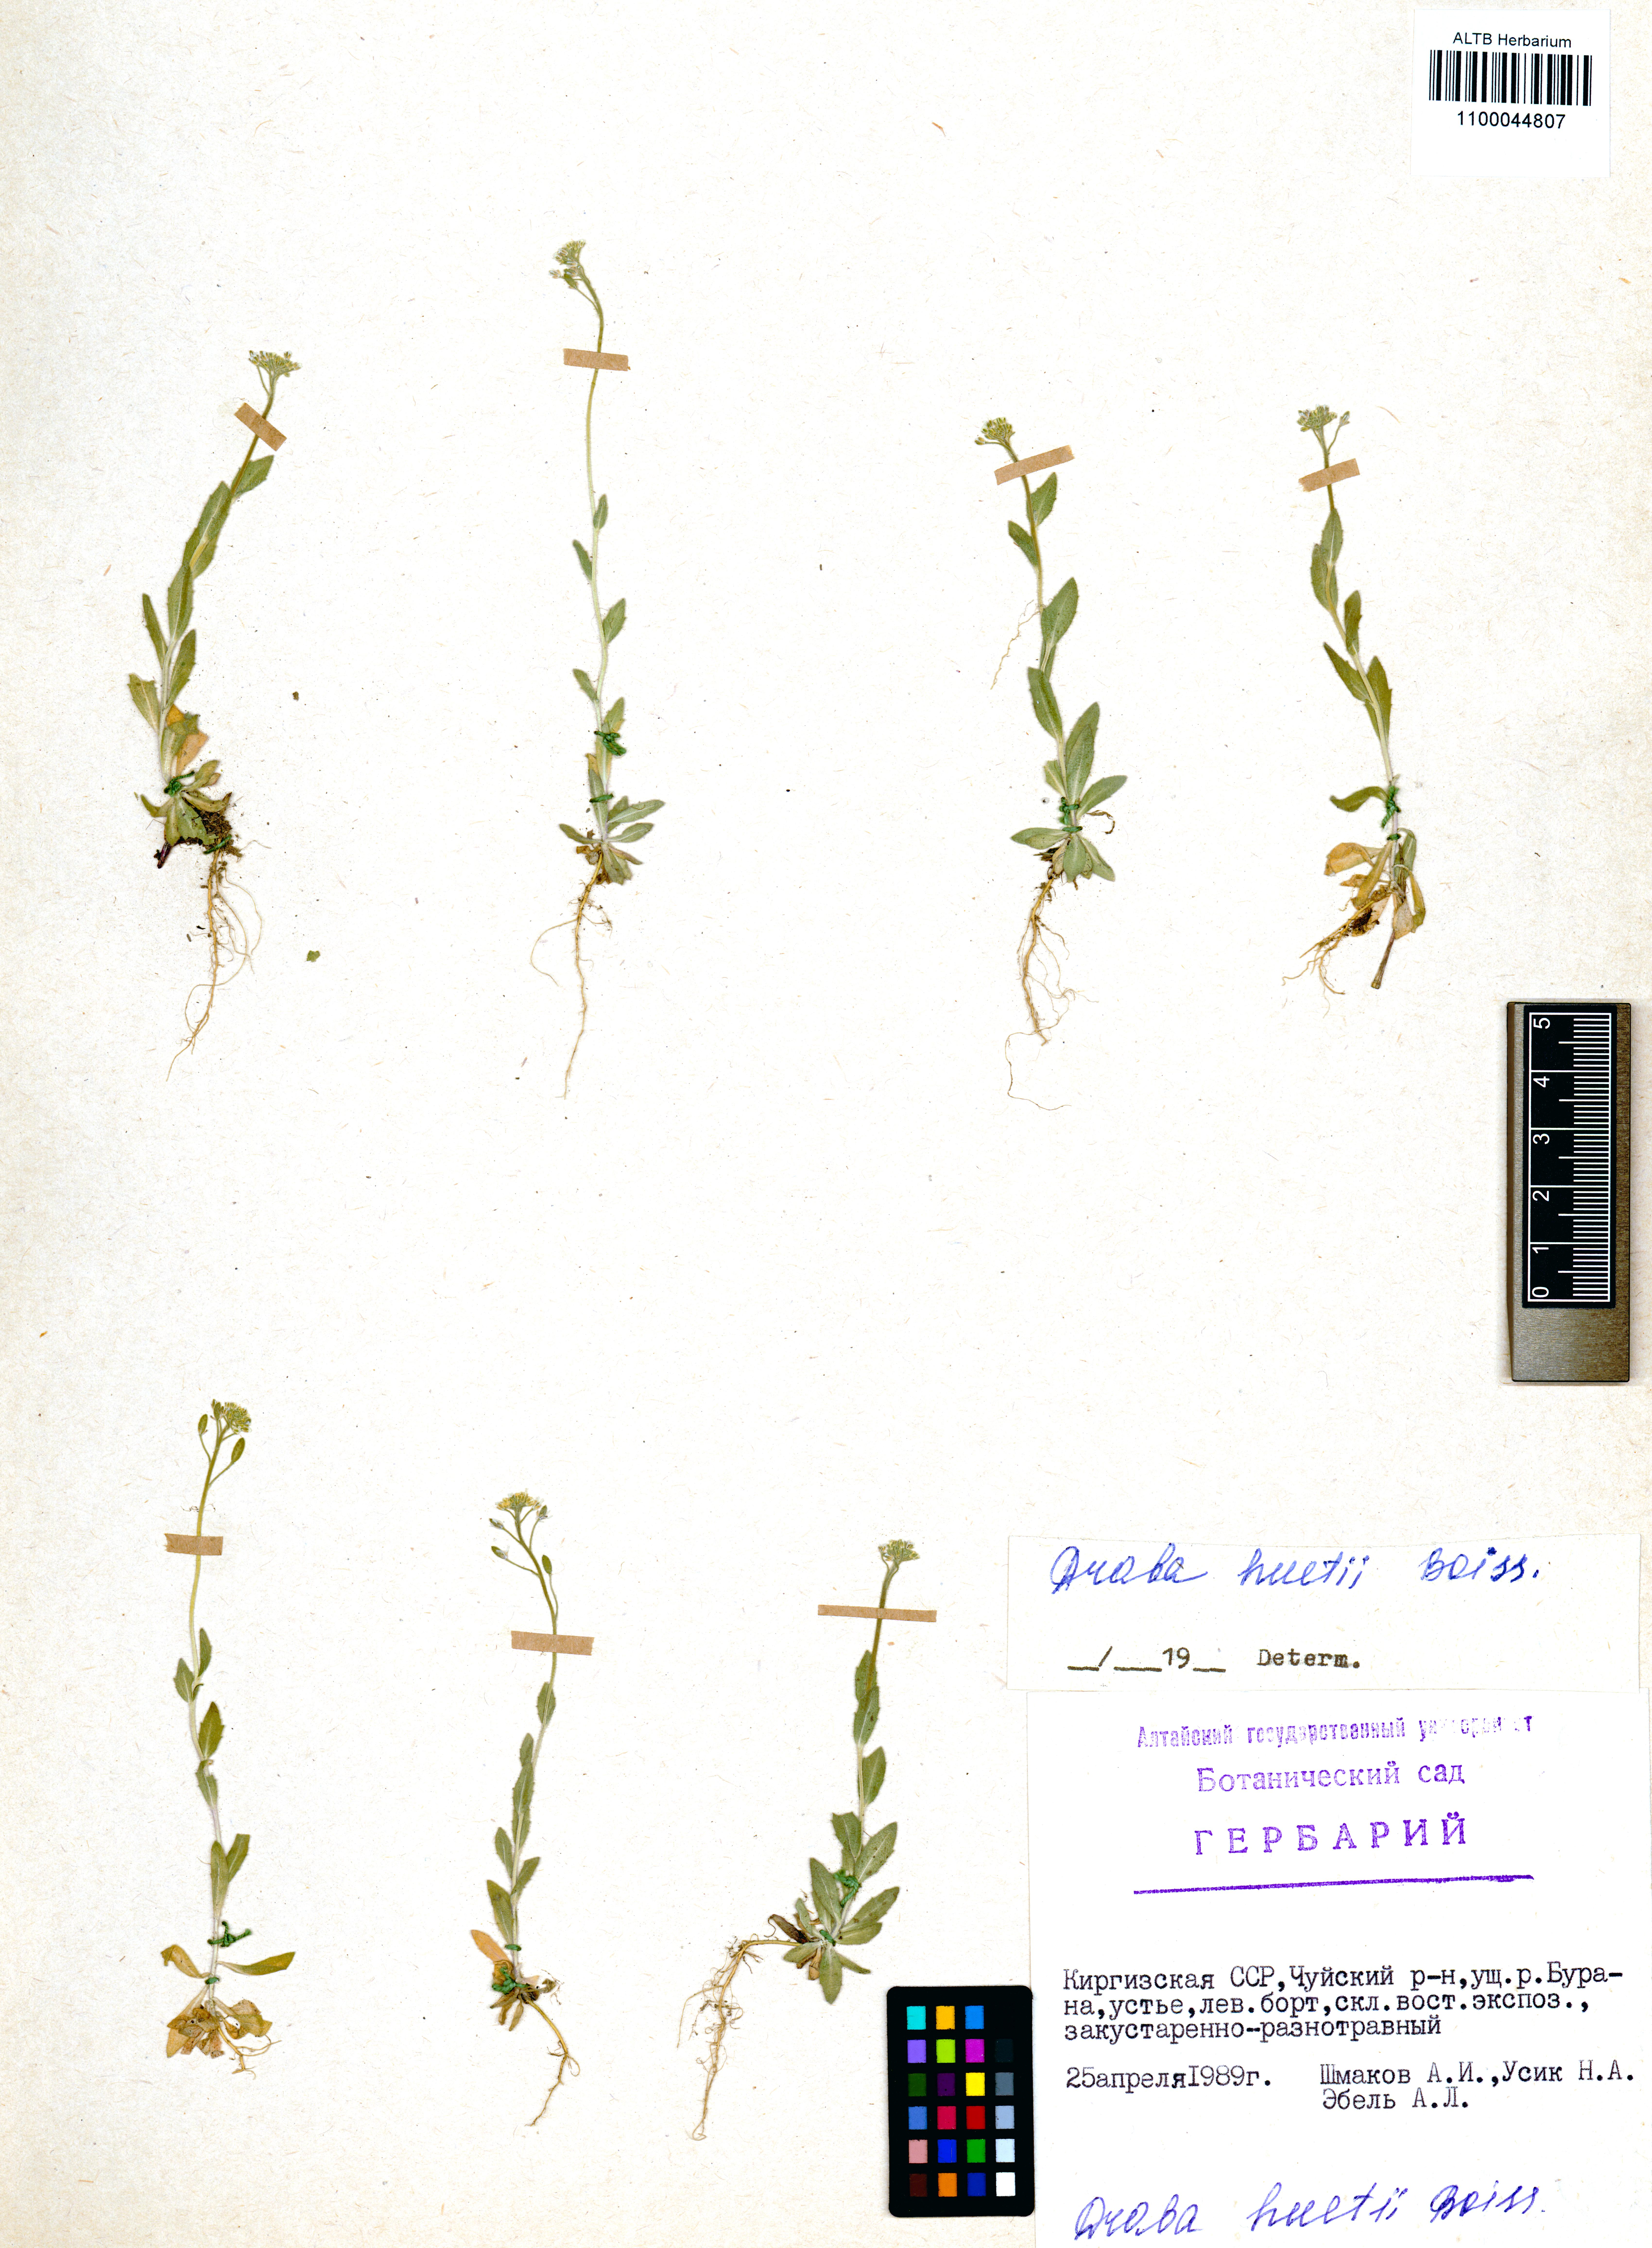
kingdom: Plantae
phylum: Tracheophyta
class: Magnoliopsida
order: Brassicales
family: Brassicaceae
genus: Draba
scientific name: Draba huetii
